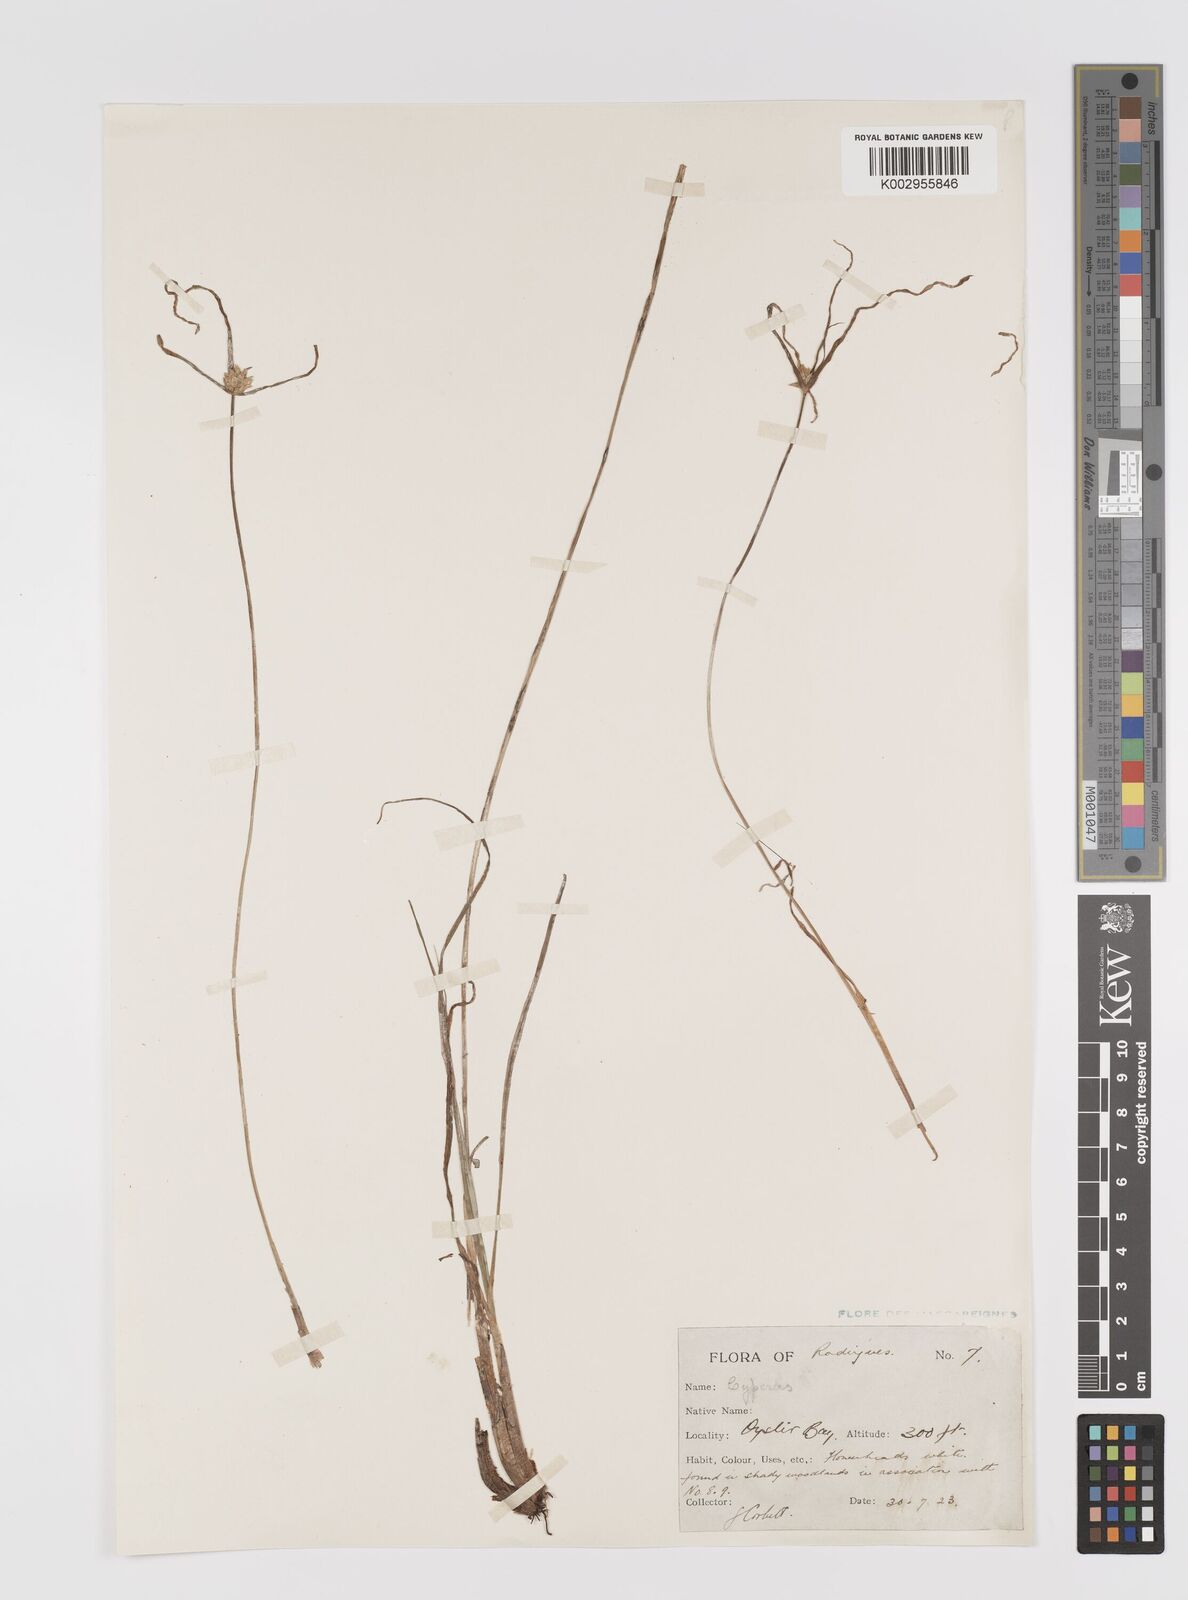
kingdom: Plantae
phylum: Tracheophyta
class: Liliopsida
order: Poales
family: Cyperaceae
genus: Cyperus
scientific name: Cyperus dubius
